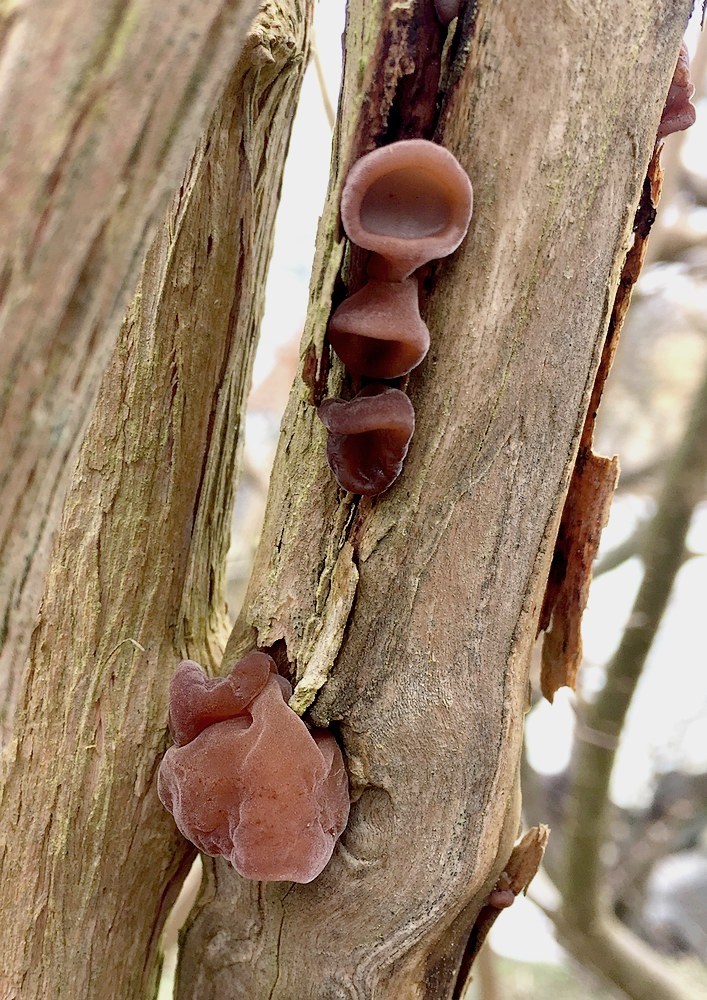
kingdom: Fungi
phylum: Basidiomycota
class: Agaricomycetes
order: Auriculariales
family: Auriculariaceae
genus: Auricularia
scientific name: Auricularia auricula-judae
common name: almindelig judasøre
